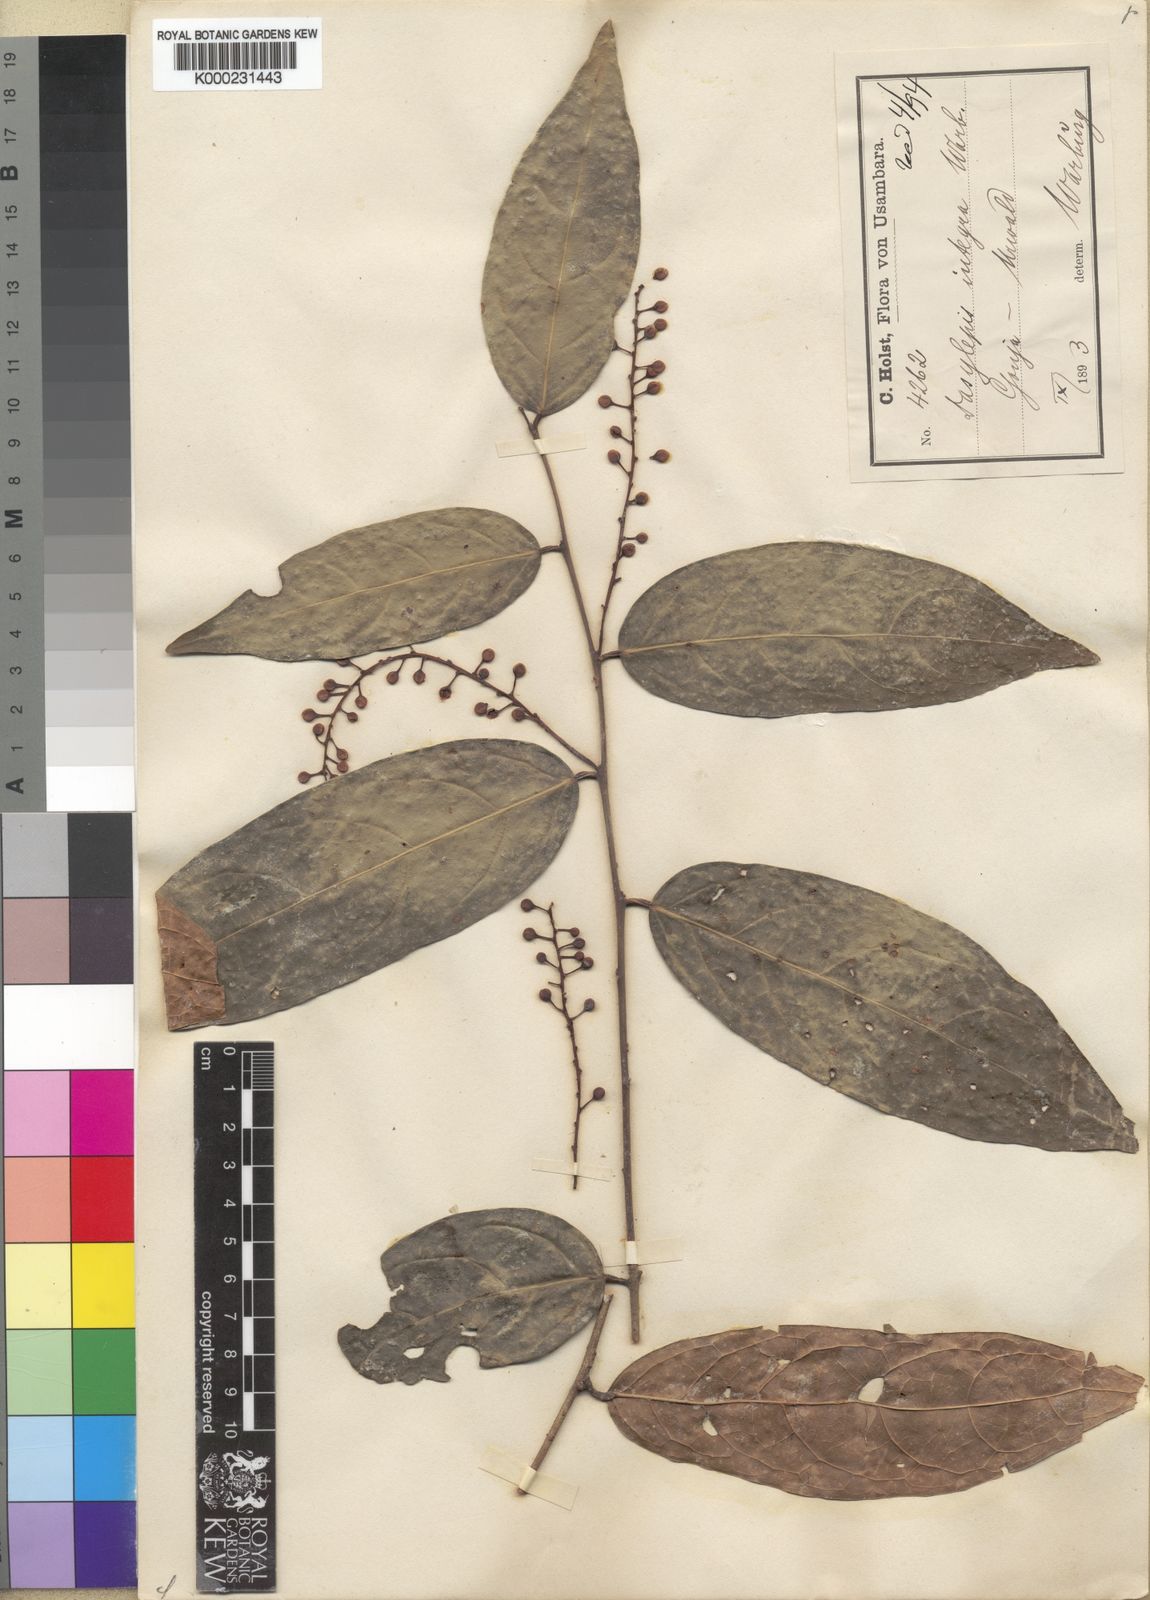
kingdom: Plantae
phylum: Tracheophyta
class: Magnoliopsida
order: Malpighiales
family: Achariaceae
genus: Dasylepis
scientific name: Dasylepis integra
